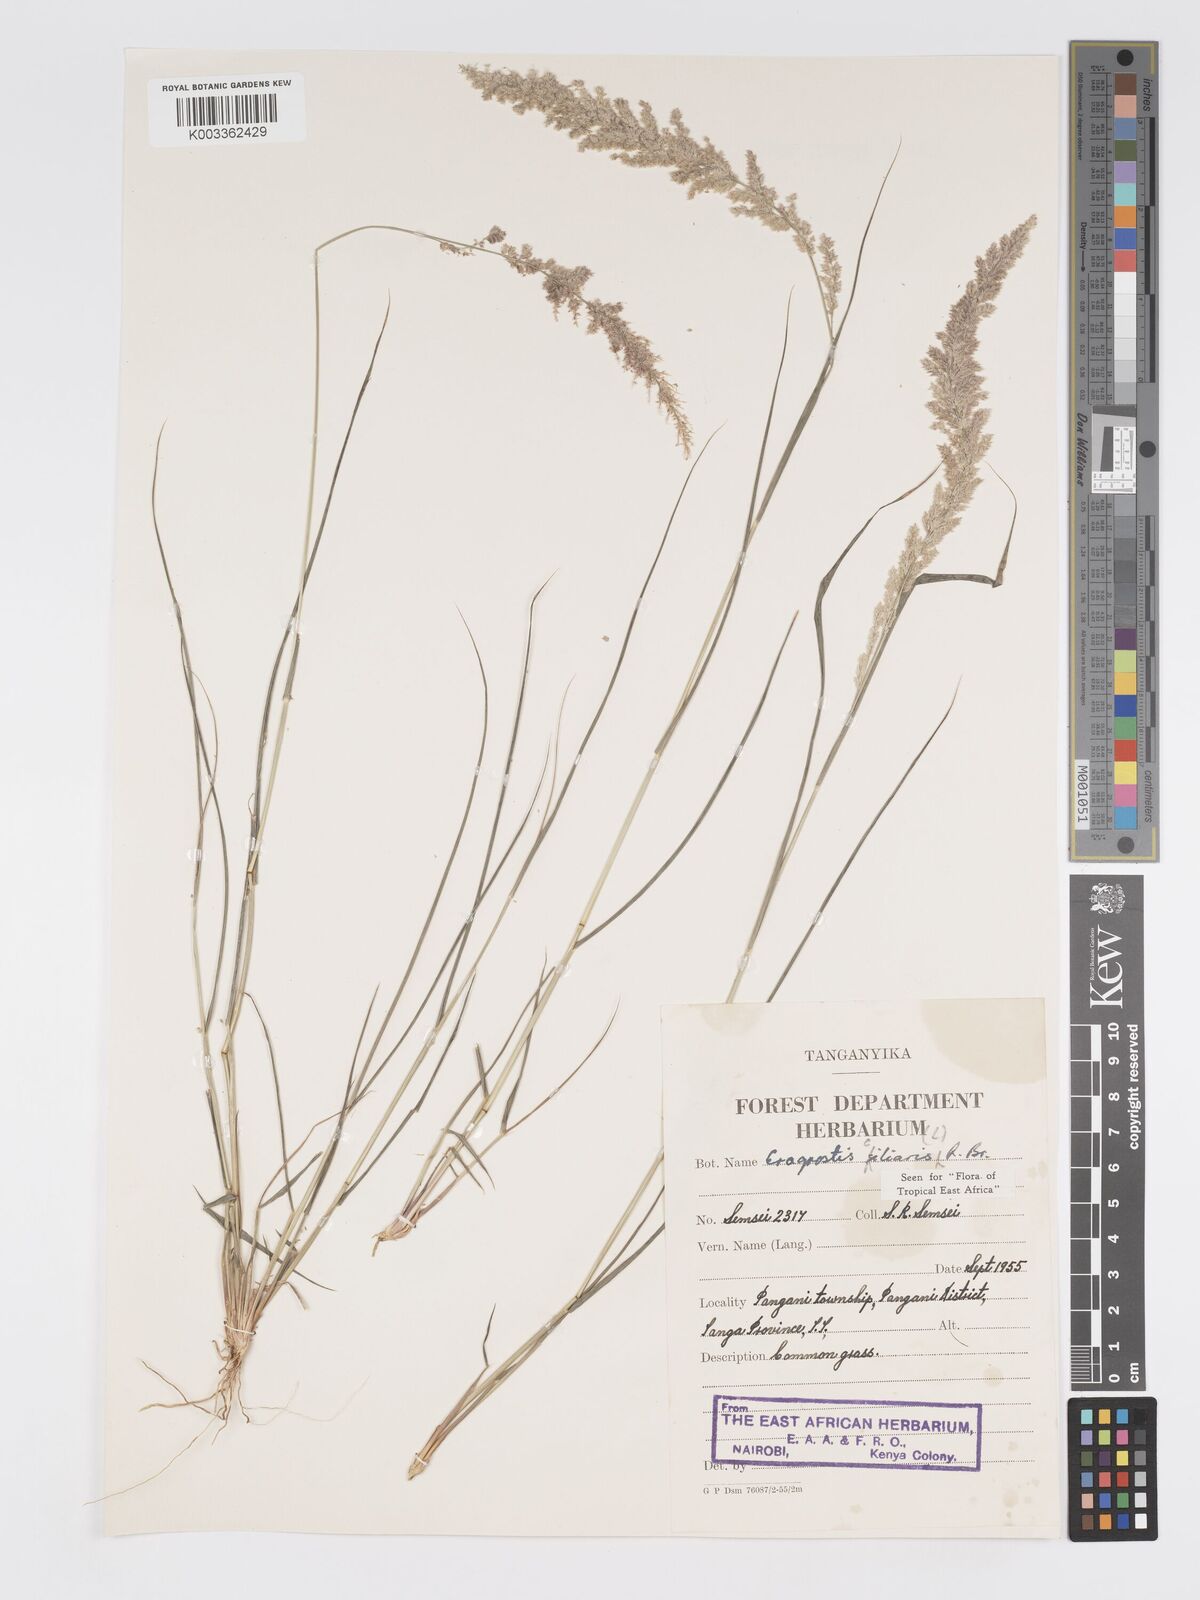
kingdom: Plantae
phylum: Tracheophyta
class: Liliopsida
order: Poales
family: Poaceae
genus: Eragrostis
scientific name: Eragrostis ciliaris
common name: Gophertail lovegrass
